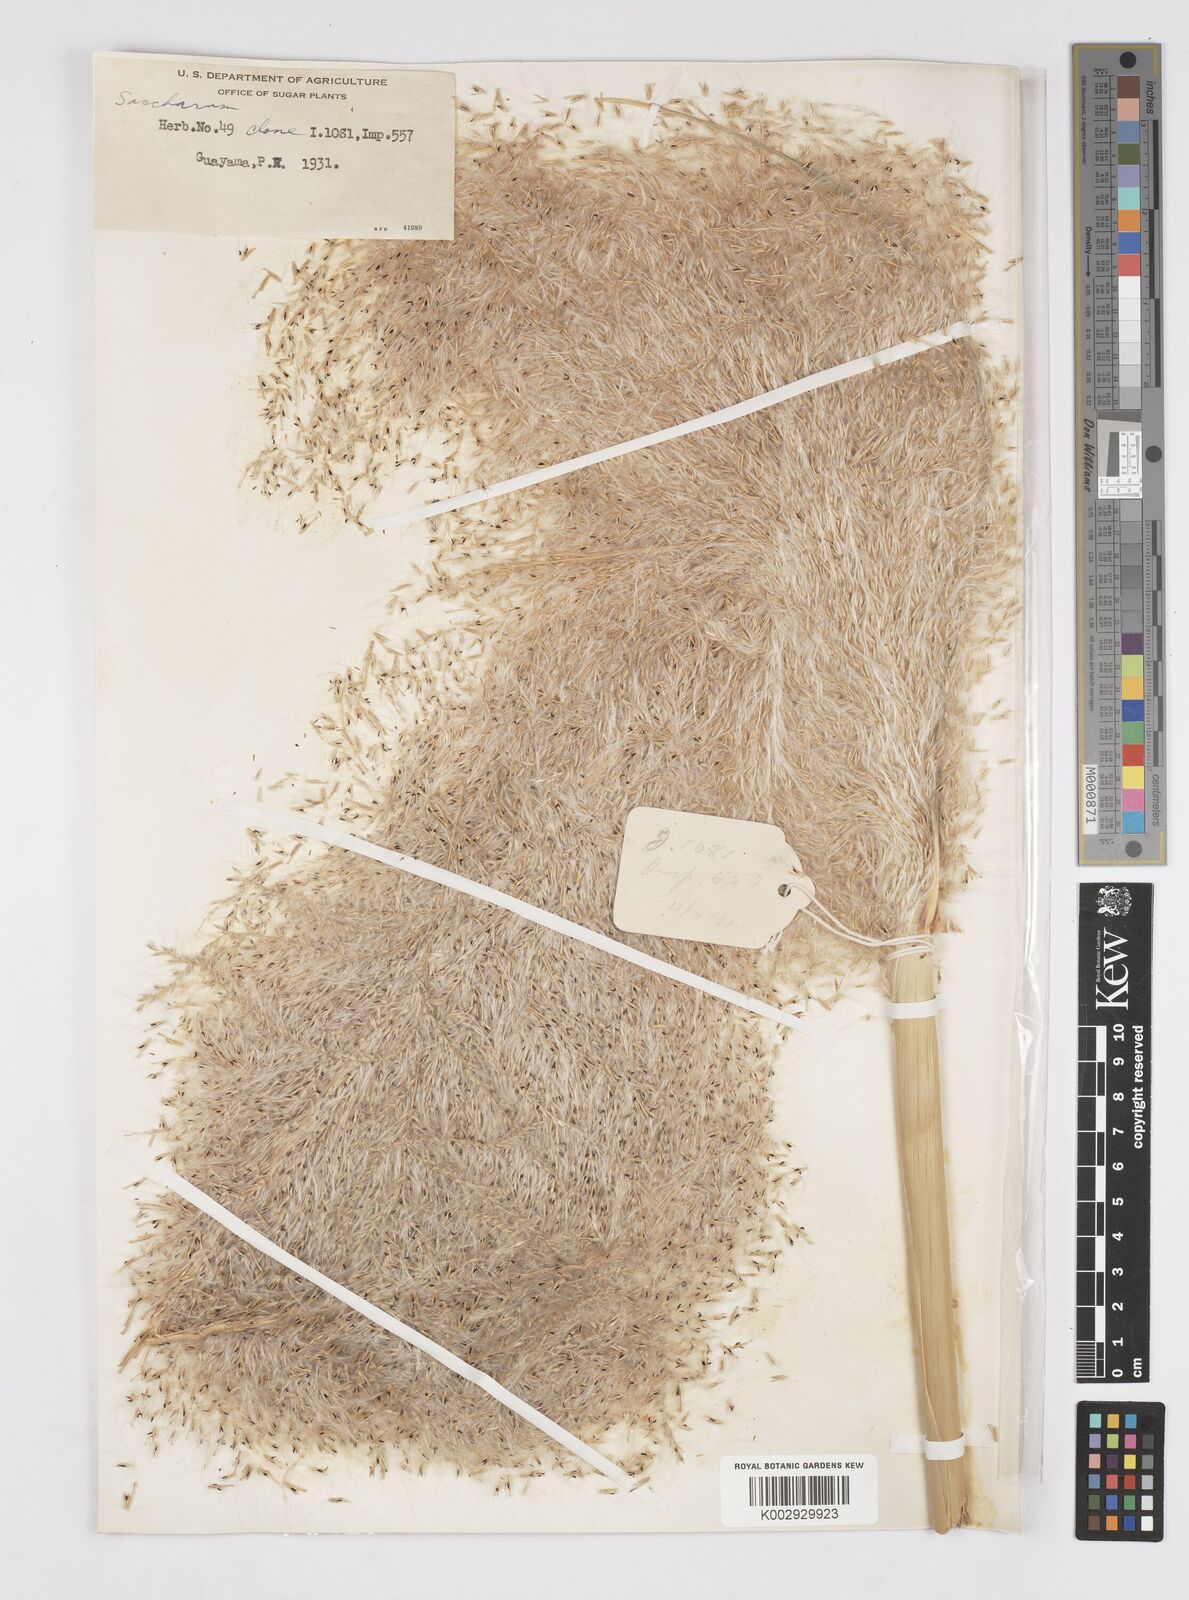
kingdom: Plantae
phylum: Tracheophyta
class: Liliopsida
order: Poales
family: Poaceae
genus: Saccharum
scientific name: Saccharum officinarum
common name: Sugarcane
